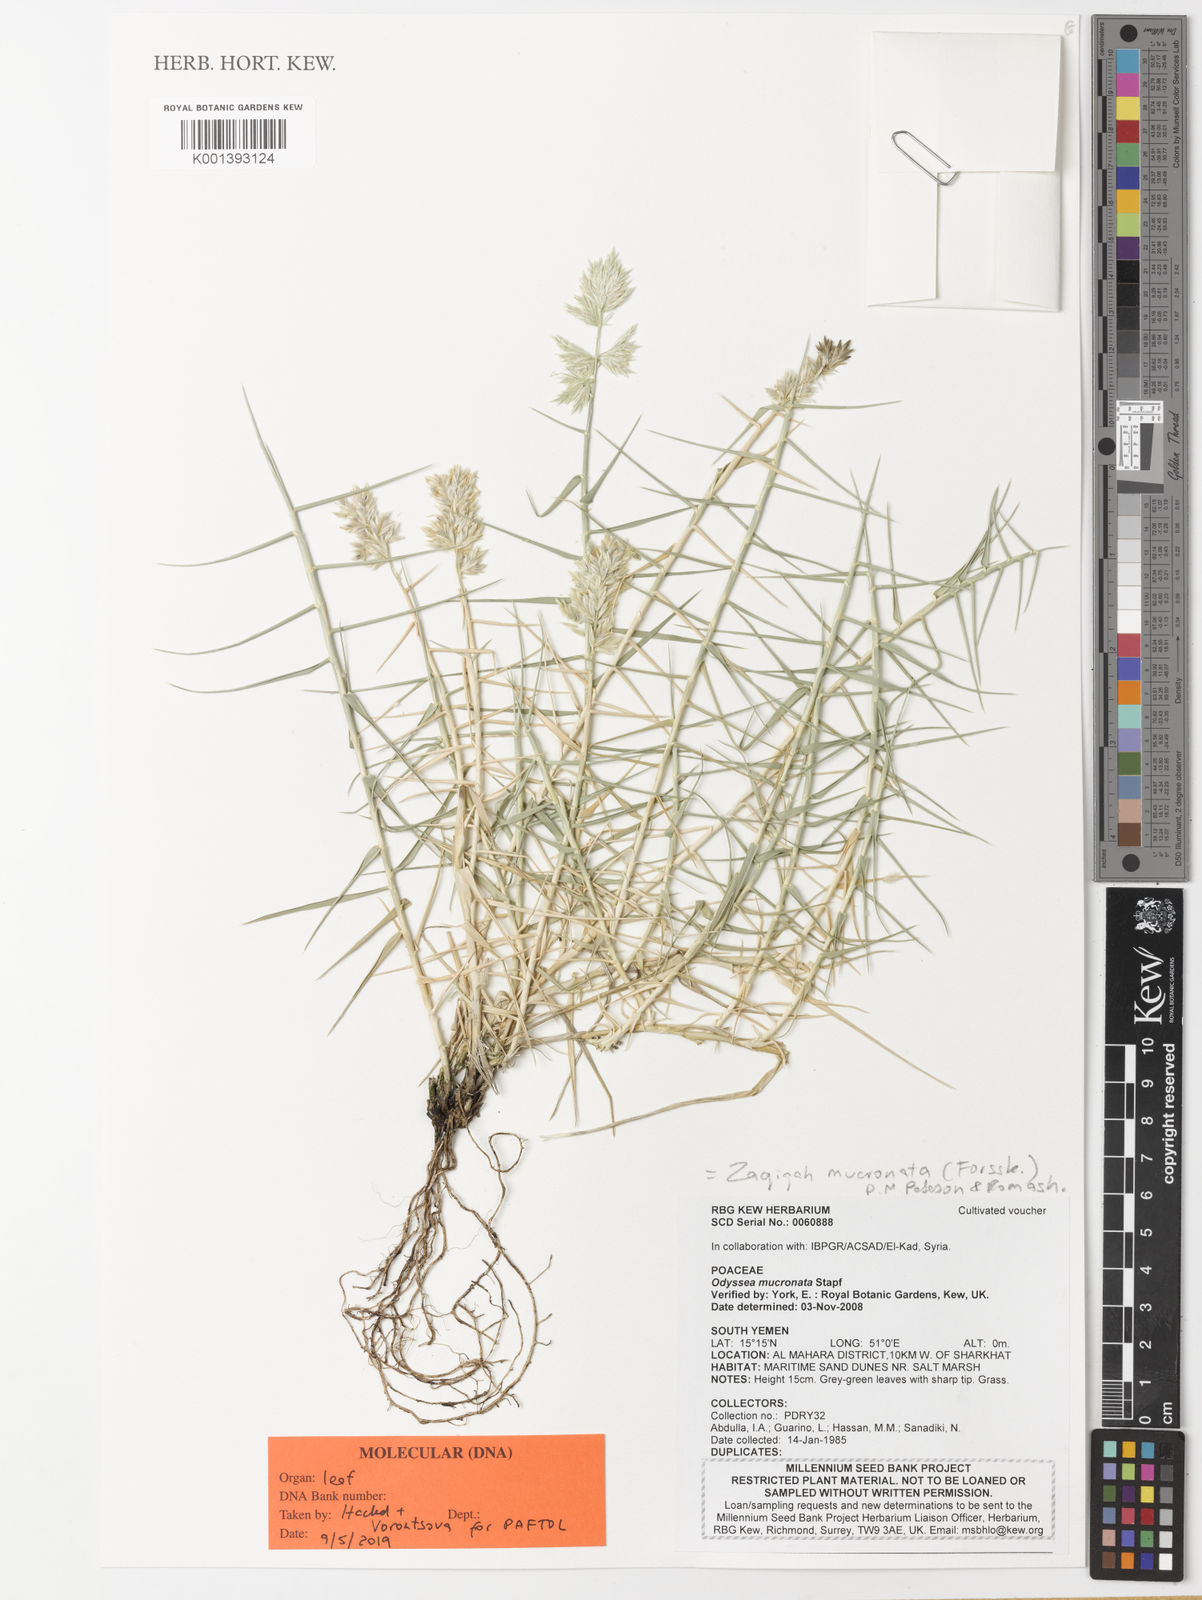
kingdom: Plantae
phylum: Tracheophyta
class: Liliopsida
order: Poales
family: Poaceae
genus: Zaqiqah
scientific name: Zaqiqah mucronata
